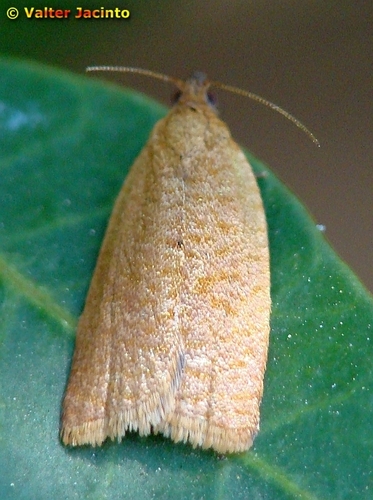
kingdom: Animalia
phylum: Arthropoda
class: Insecta
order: Lepidoptera
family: Tortricidae
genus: Clepsis
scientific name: Clepsis
